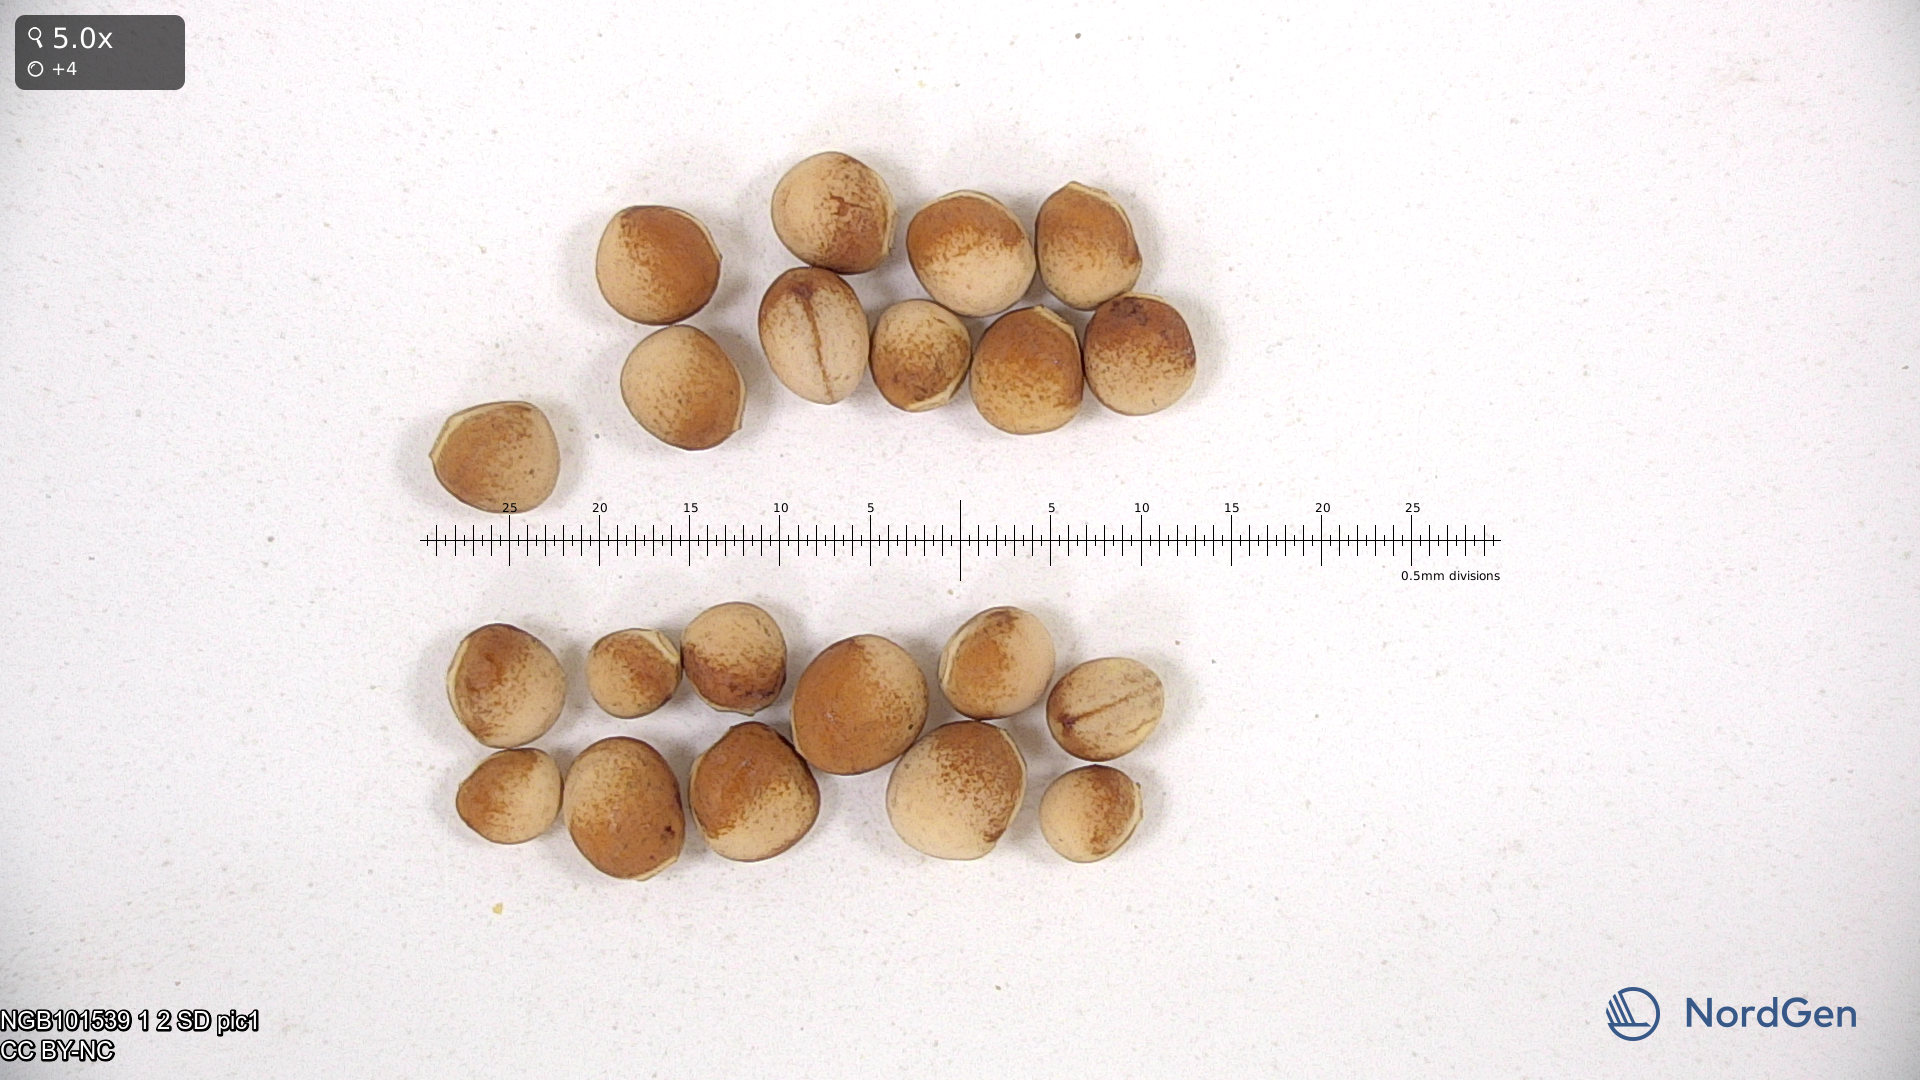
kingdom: Plantae
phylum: Tracheophyta
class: Magnoliopsida
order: Fabales
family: Fabaceae
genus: Lathyrus
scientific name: Lathyrus oleraceus
